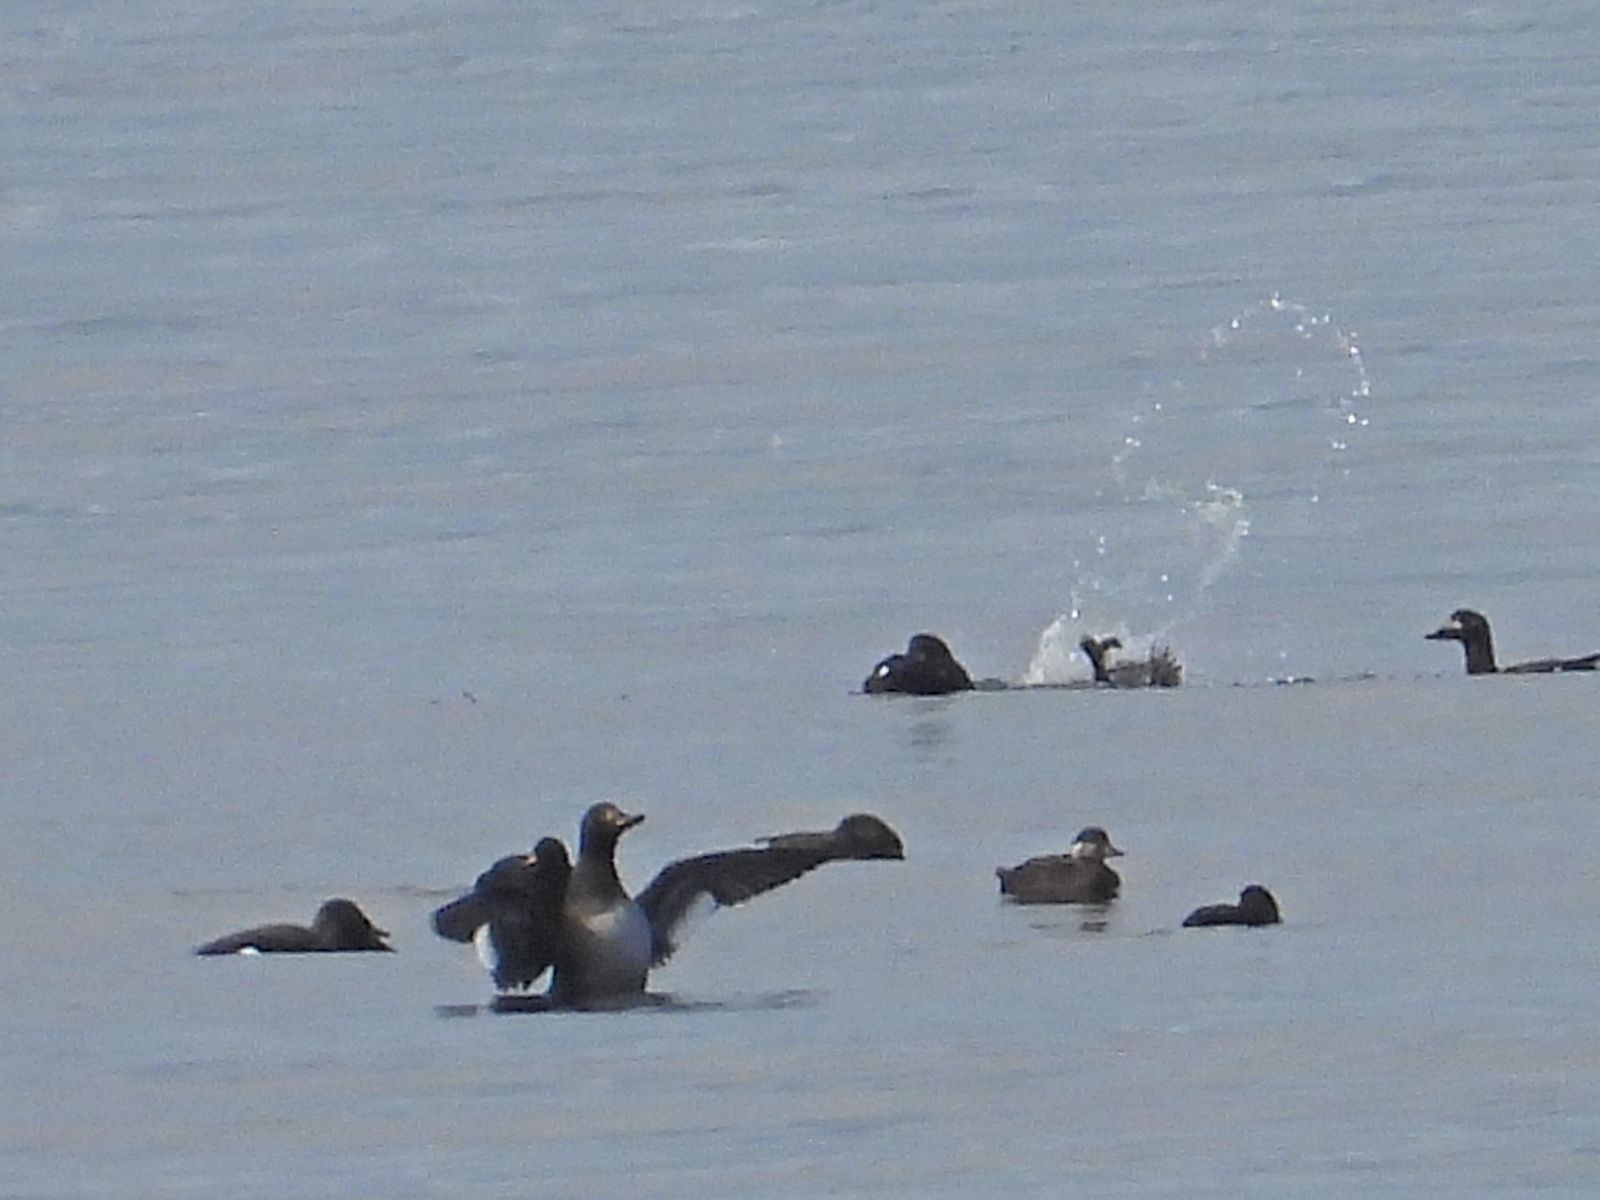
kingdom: Animalia
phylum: Chordata
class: Aves
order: Anseriformes
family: Anatidae
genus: Melanitta
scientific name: Melanitta nigra
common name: Common scoter
